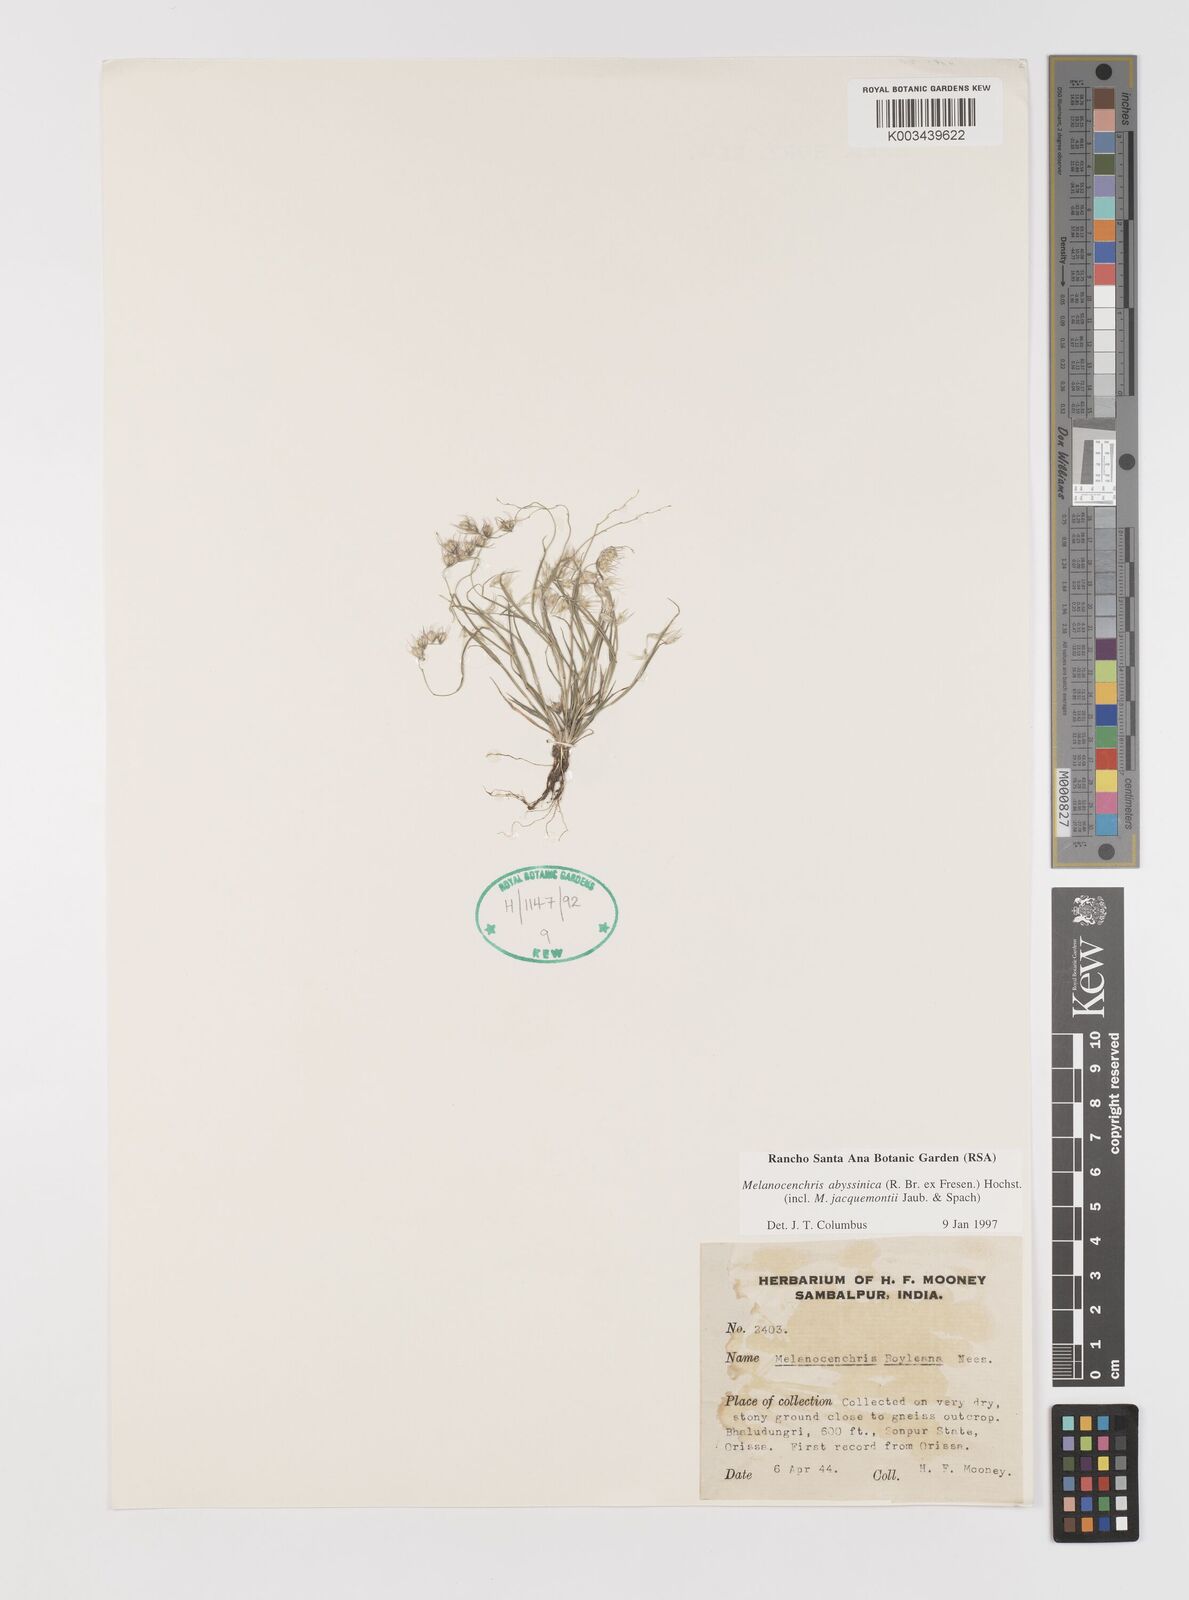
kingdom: Plantae
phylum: Tracheophyta
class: Liliopsida
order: Poales
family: Poaceae
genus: Melanocenchris
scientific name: Melanocenchris abyssinica
